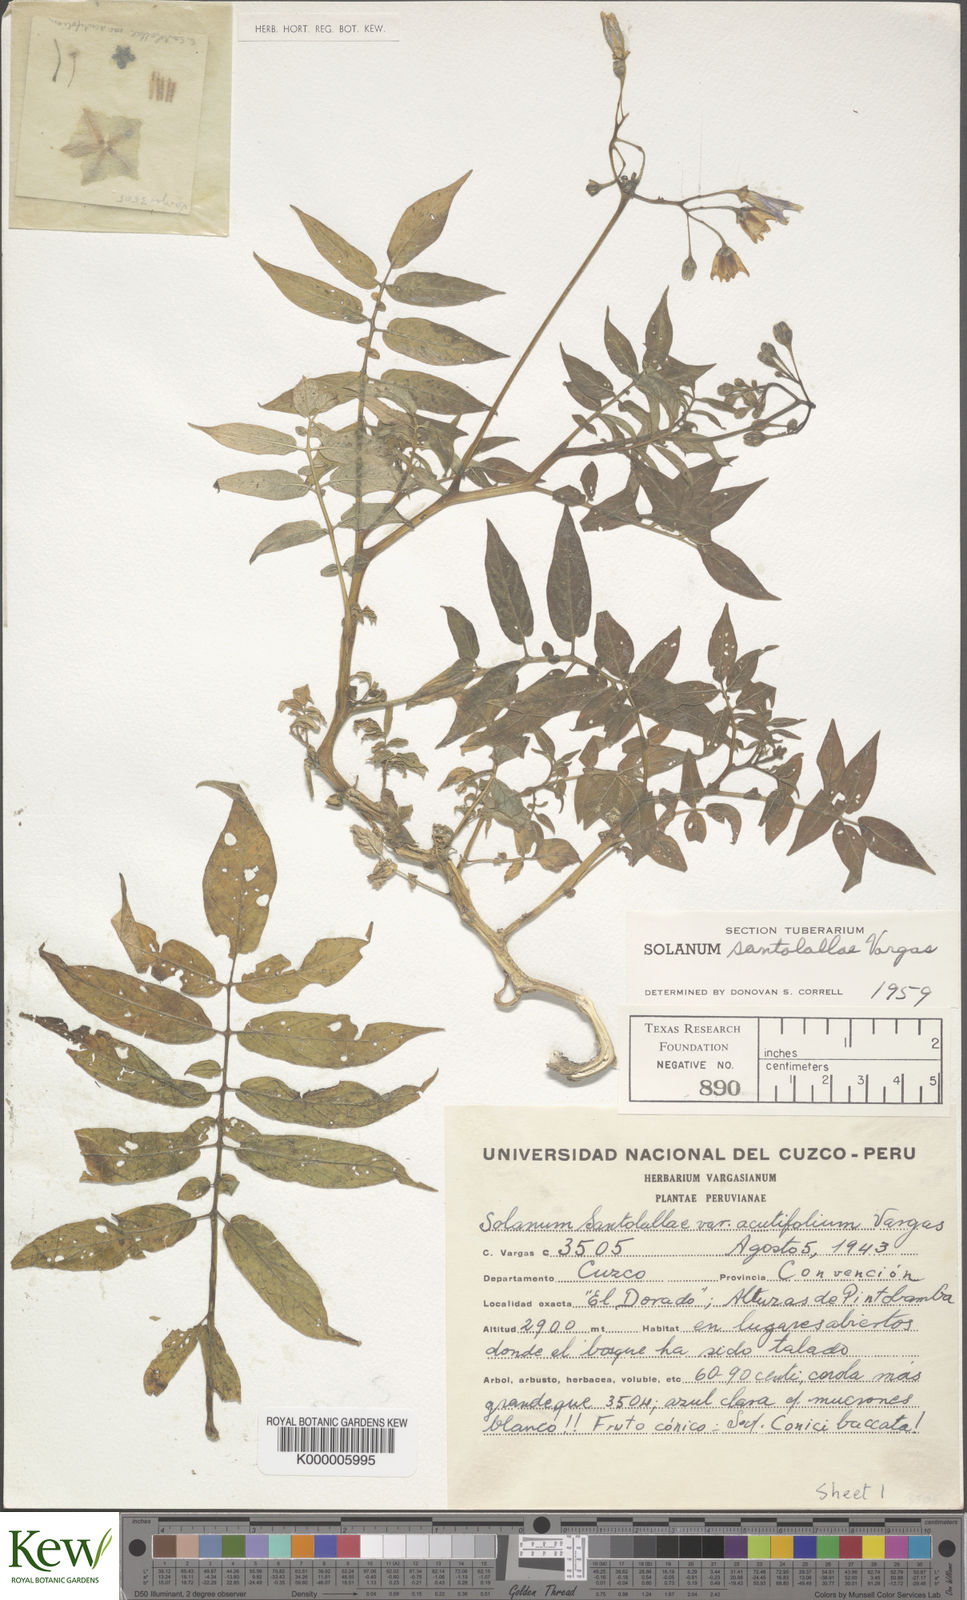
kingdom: Plantae
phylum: Tracheophyta
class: Magnoliopsida
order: Solanales
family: Solanaceae
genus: Solanum
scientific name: Solanum laxissimum
